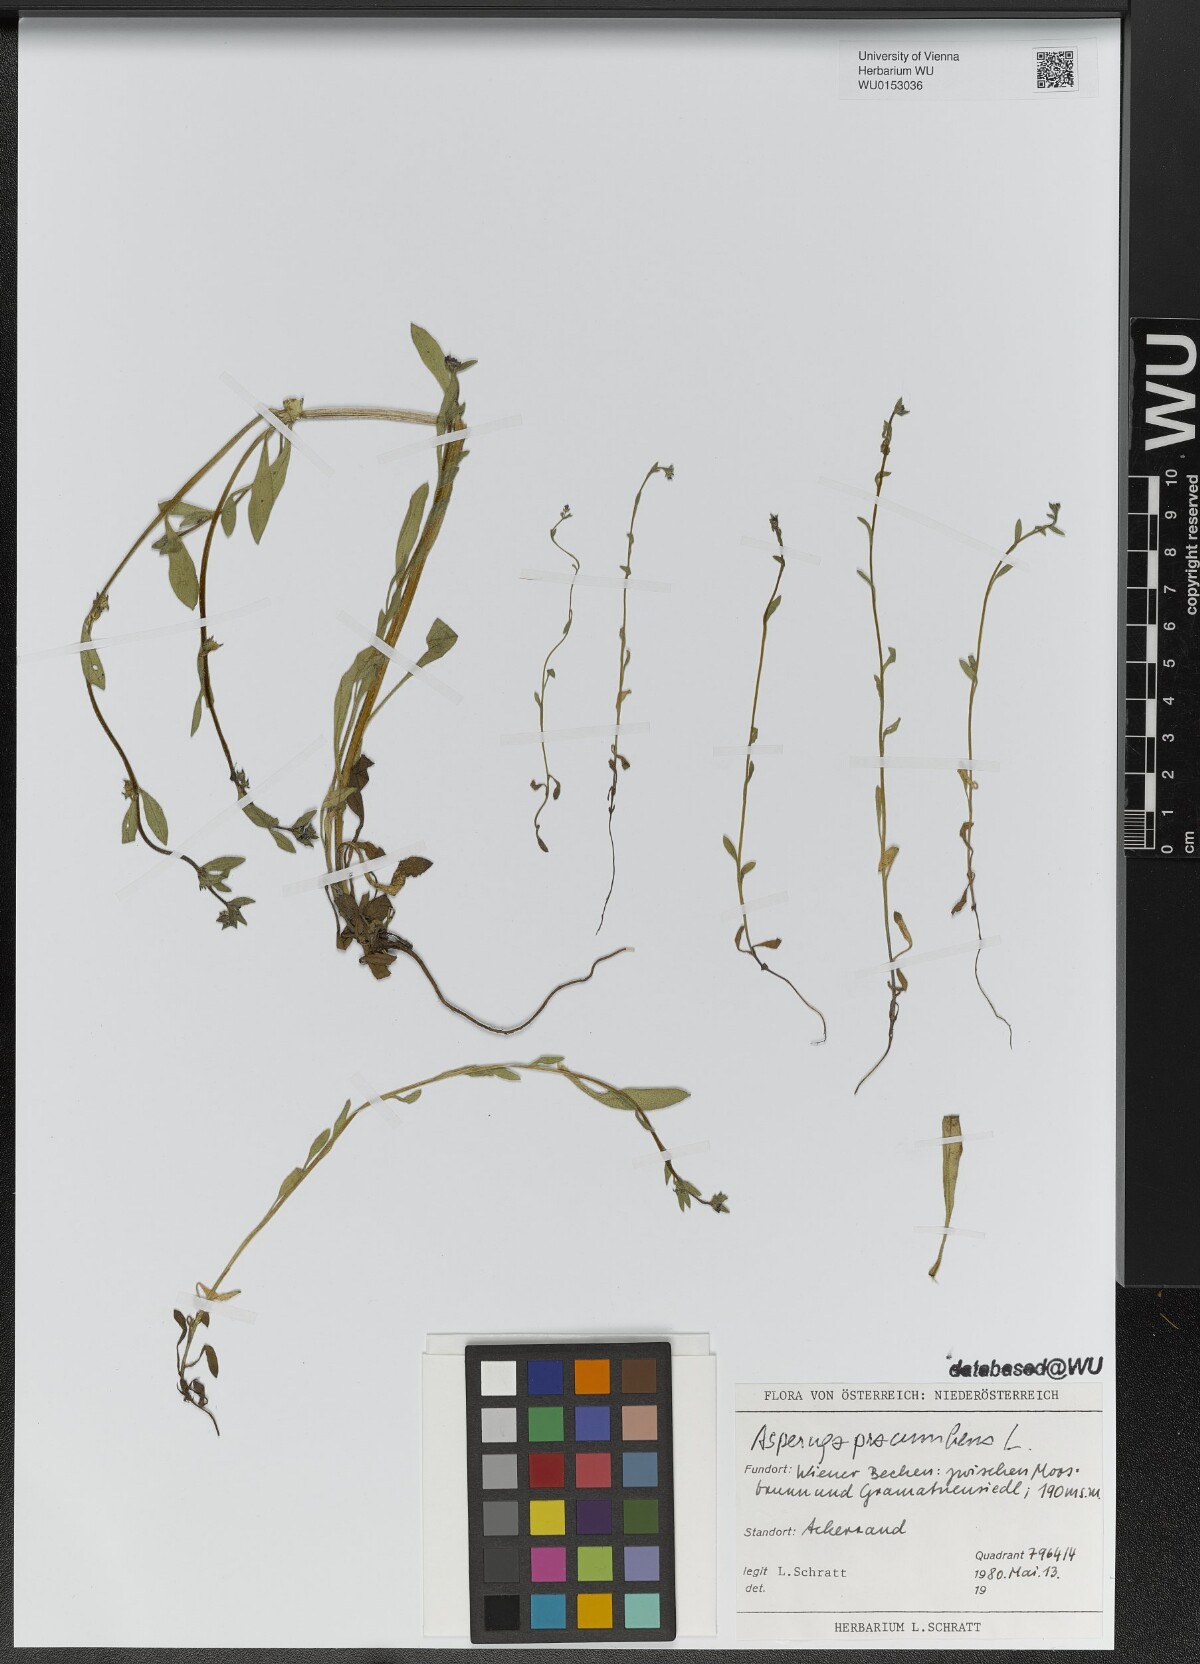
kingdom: Plantae
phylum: Tracheophyta
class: Magnoliopsida
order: Boraginales
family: Boraginaceae
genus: Asperugo
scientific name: Asperugo procumbens
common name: Madwort
